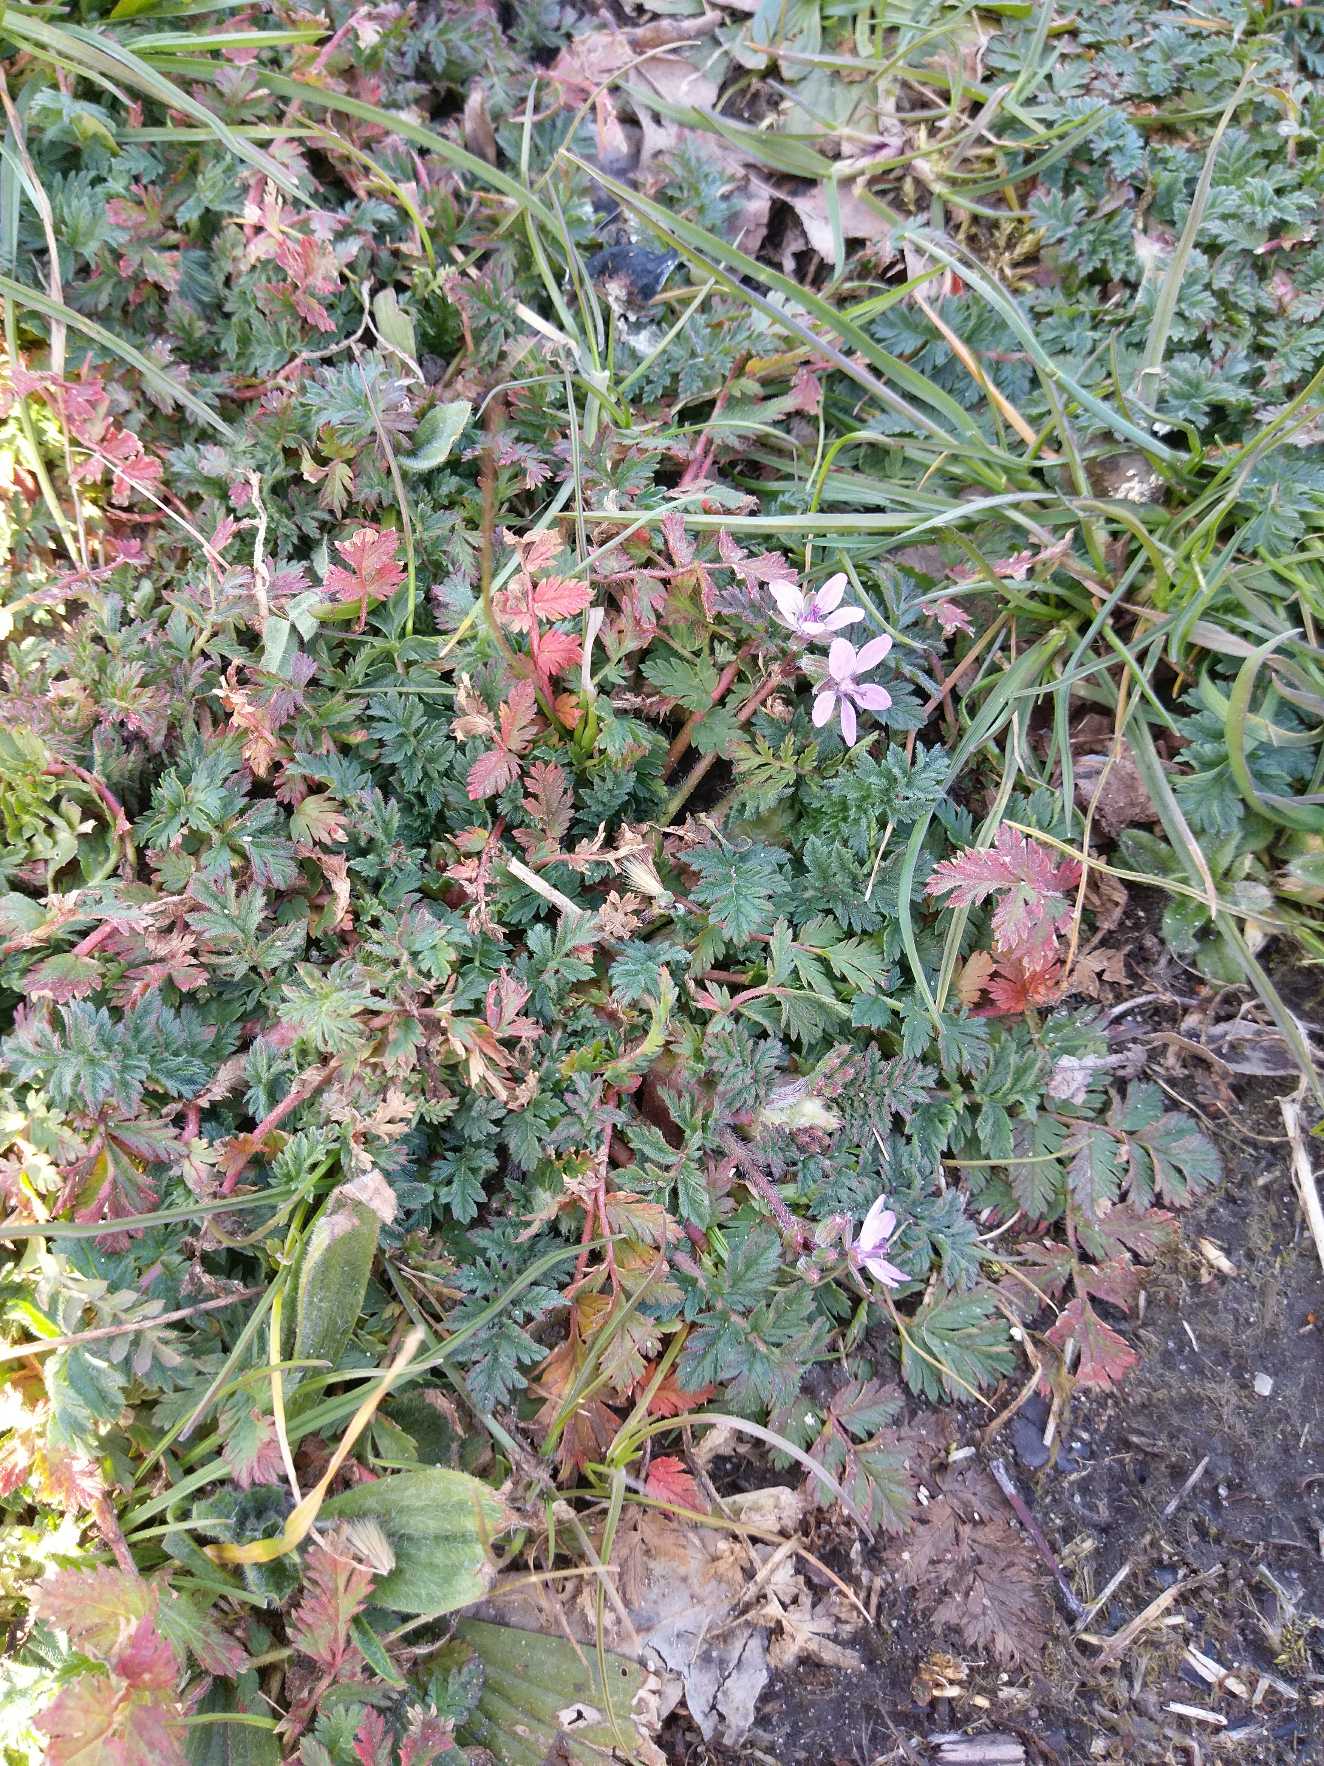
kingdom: Plantae
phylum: Tracheophyta
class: Magnoliopsida
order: Geraniales
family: Geraniaceae
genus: Erodium
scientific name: Erodium cicutarium
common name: Hejrenæb
